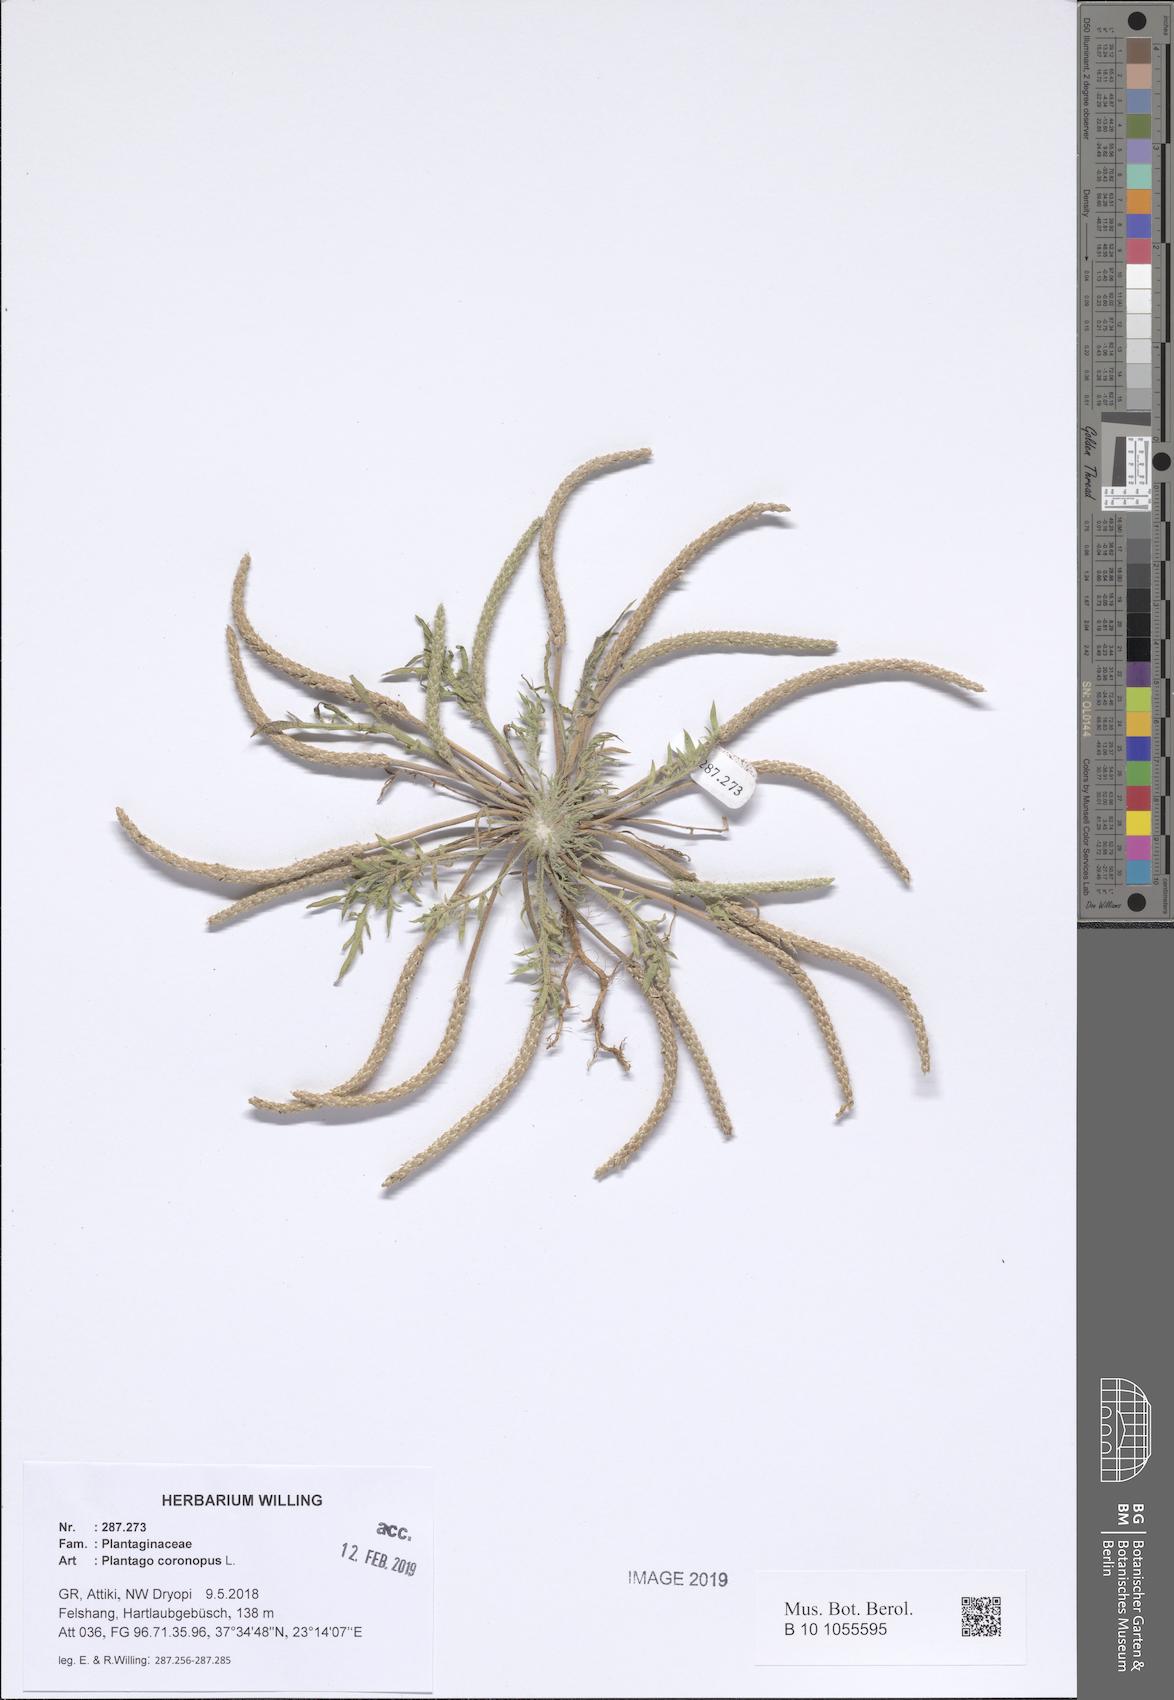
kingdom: Plantae
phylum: Tracheophyta
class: Magnoliopsida
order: Lamiales
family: Plantaginaceae
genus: Plantago
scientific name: Plantago coronopus
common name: Buck's-horn plantain
